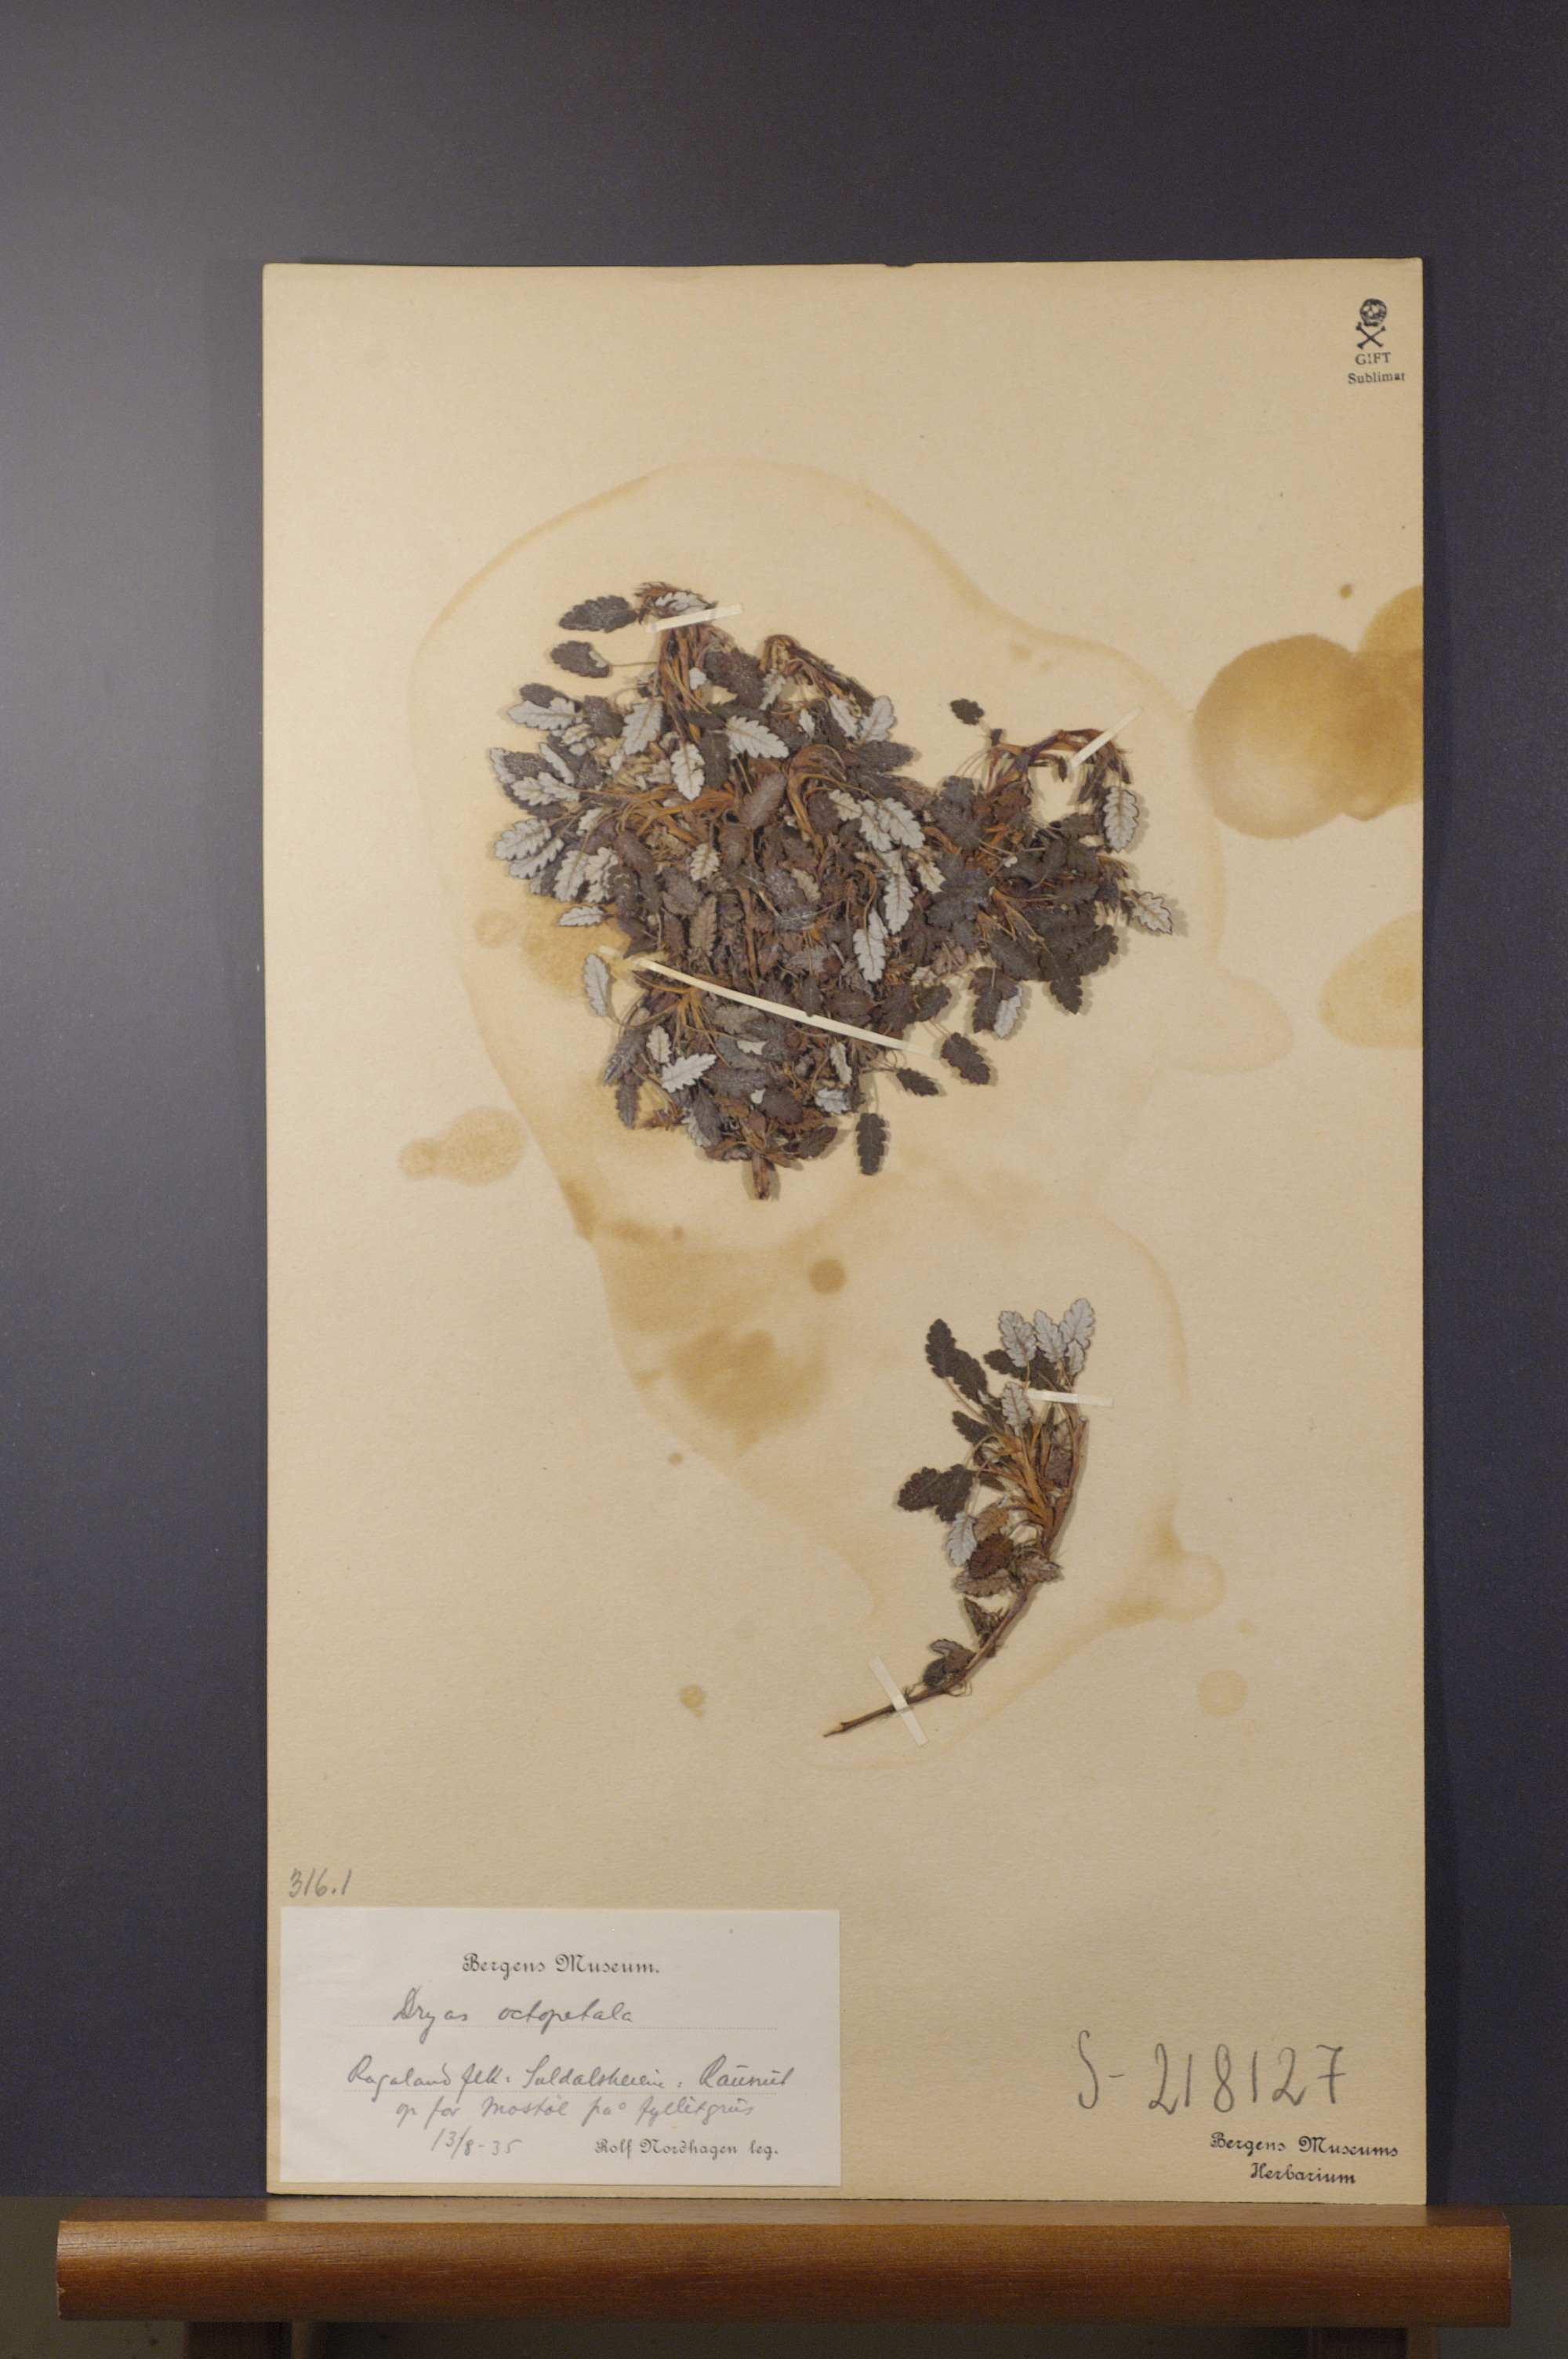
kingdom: Plantae
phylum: Tracheophyta
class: Magnoliopsida
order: Rosales
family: Rosaceae
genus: Dryas
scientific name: Dryas octopetala
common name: Eight-petal mountain-avens
